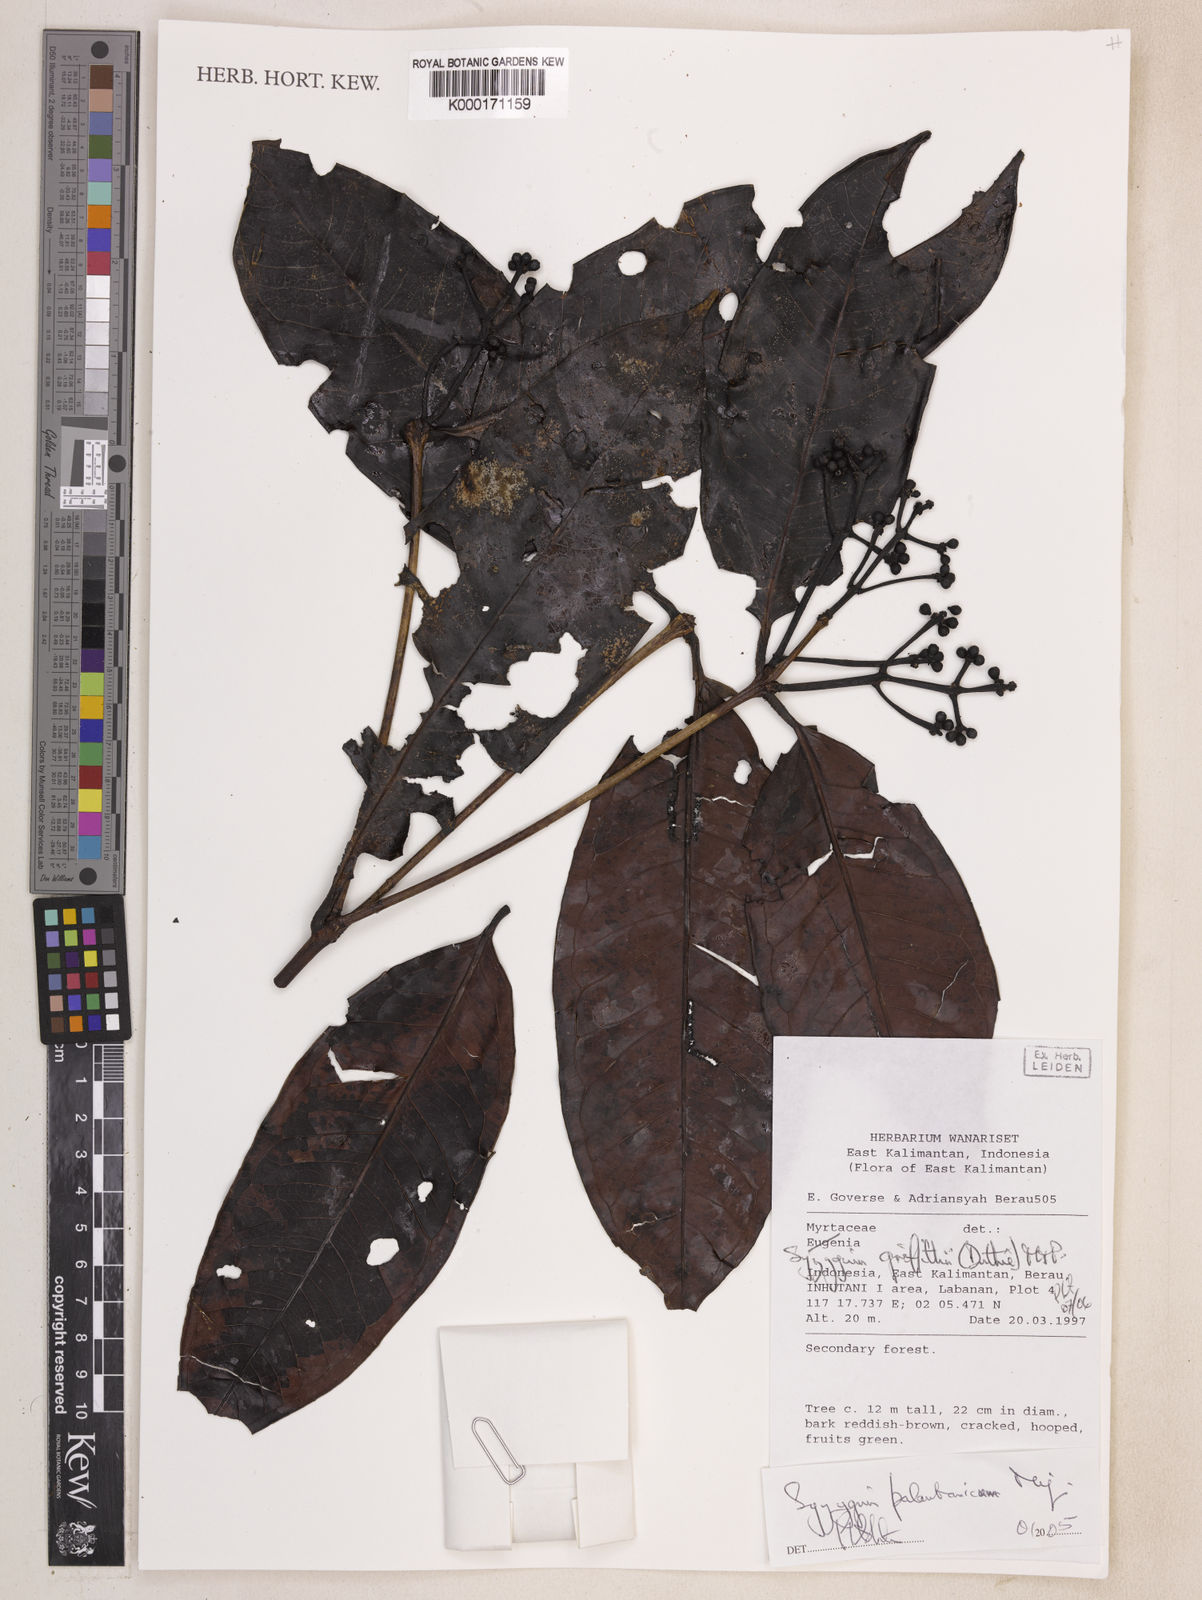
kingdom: Plantae
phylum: Tracheophyta
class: Magnoliopsida
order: Myrtales
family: Myrtaceae
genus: Syzygium
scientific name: Syzygium griffithii
